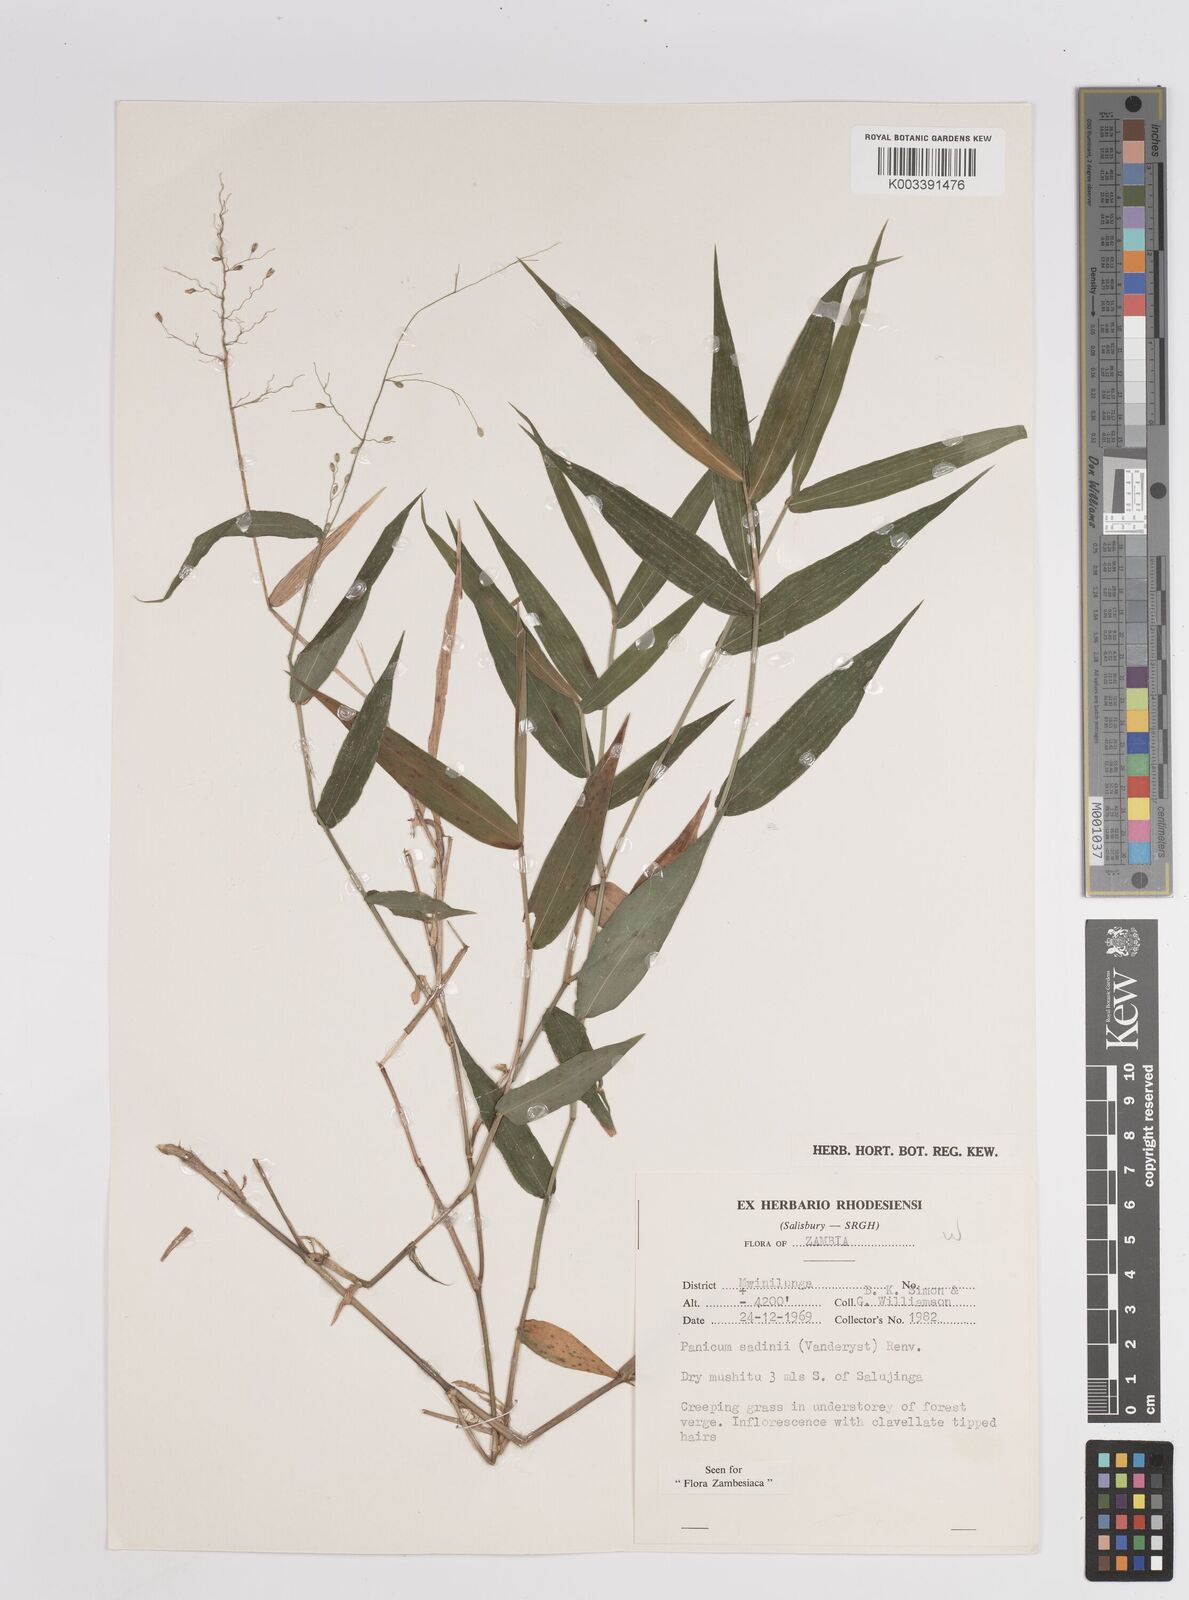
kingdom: Plantae
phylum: Tracheophyta
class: Liliopsida
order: Poales
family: Poaceae
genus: Adenochloa
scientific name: Adenochloa sadinii
